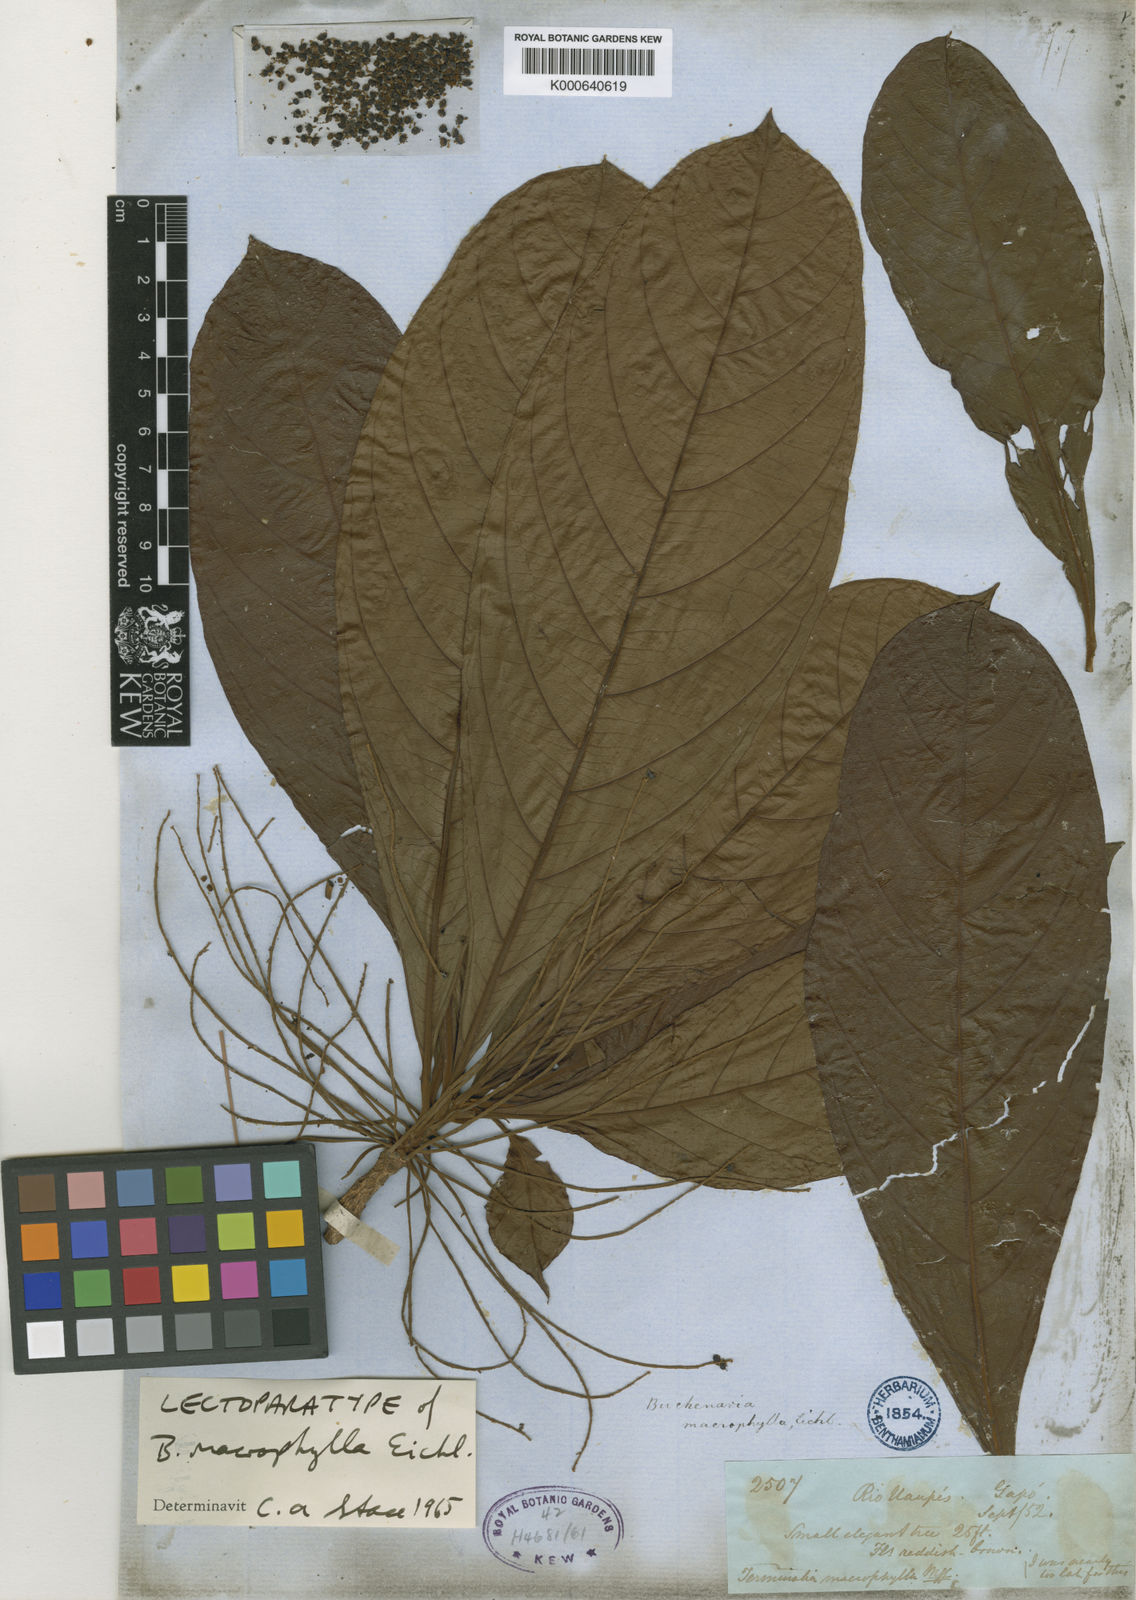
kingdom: Plantae
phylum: Tracheophyta
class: Magnoliopsida
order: Myrtales
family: Combretaceae
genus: Terminalia
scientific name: Terminalia macrophylla
